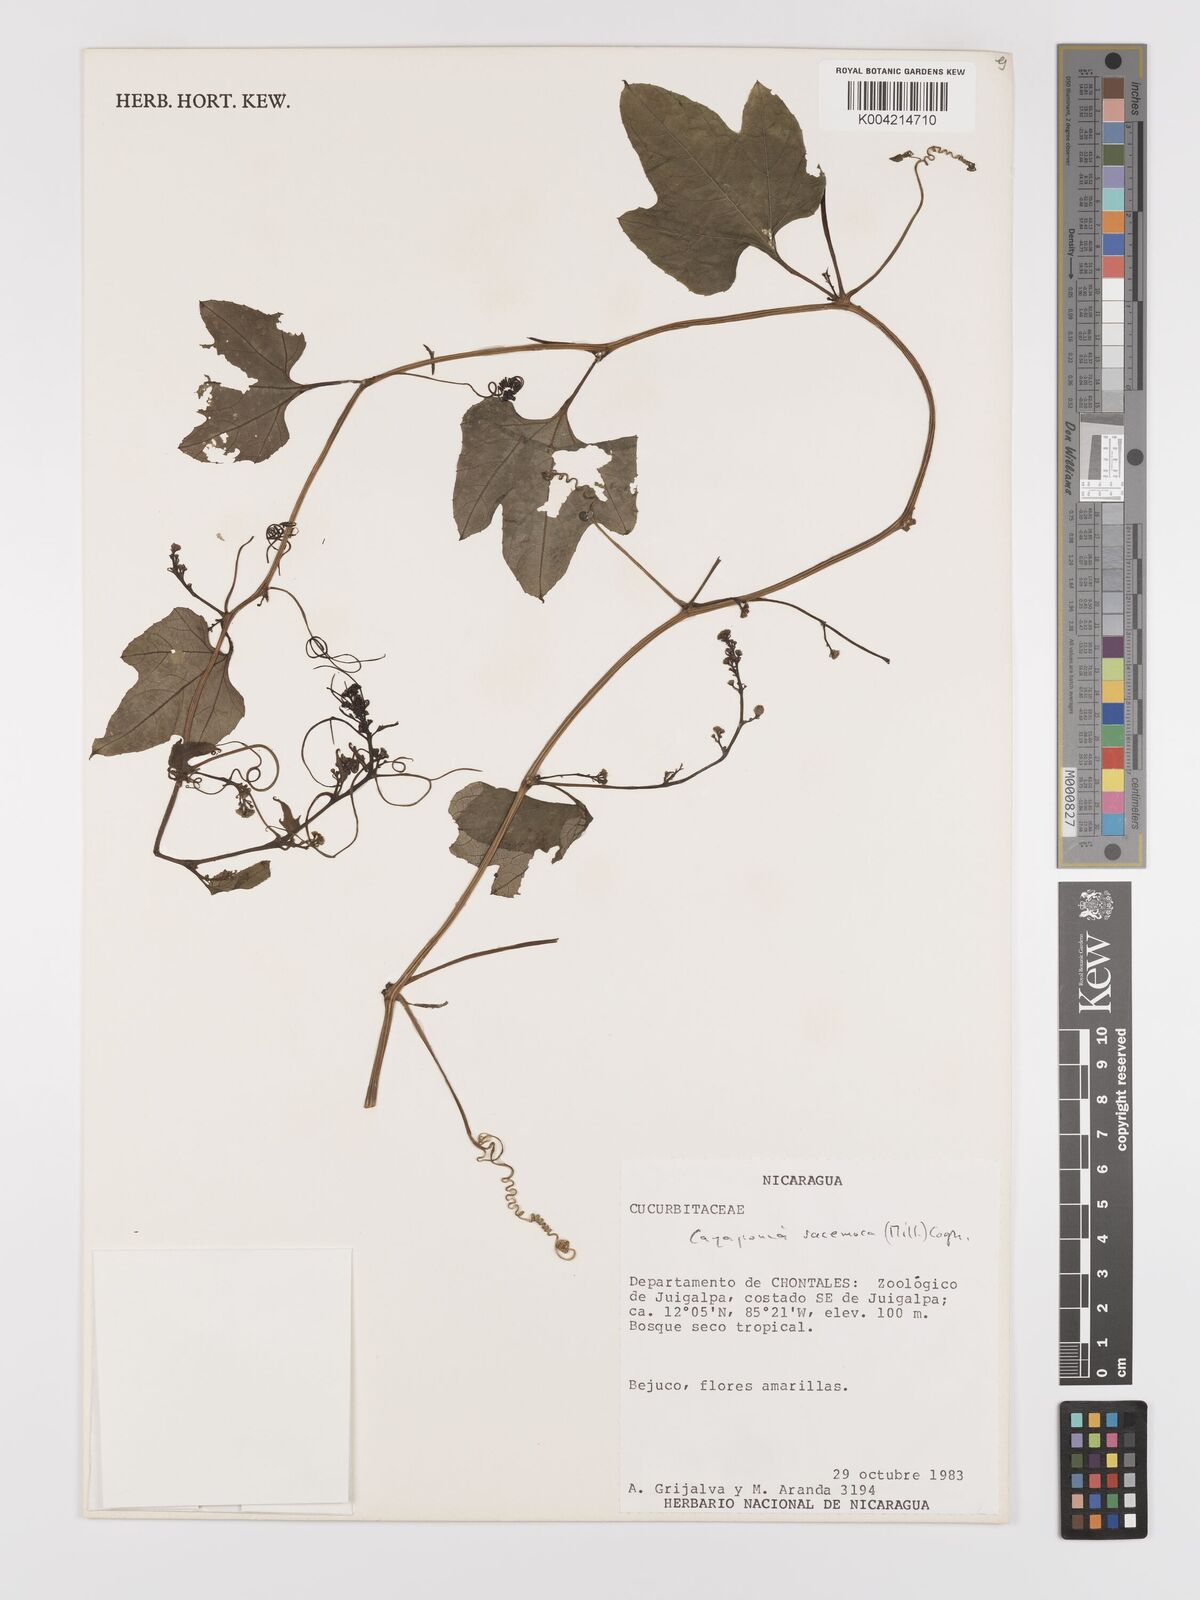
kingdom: Plantae
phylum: Tracheophyta
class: Magnoliopsida
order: Cucurbitales
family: Cucurbitaceae
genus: Cayaponia
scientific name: Cayaponia racemosa
